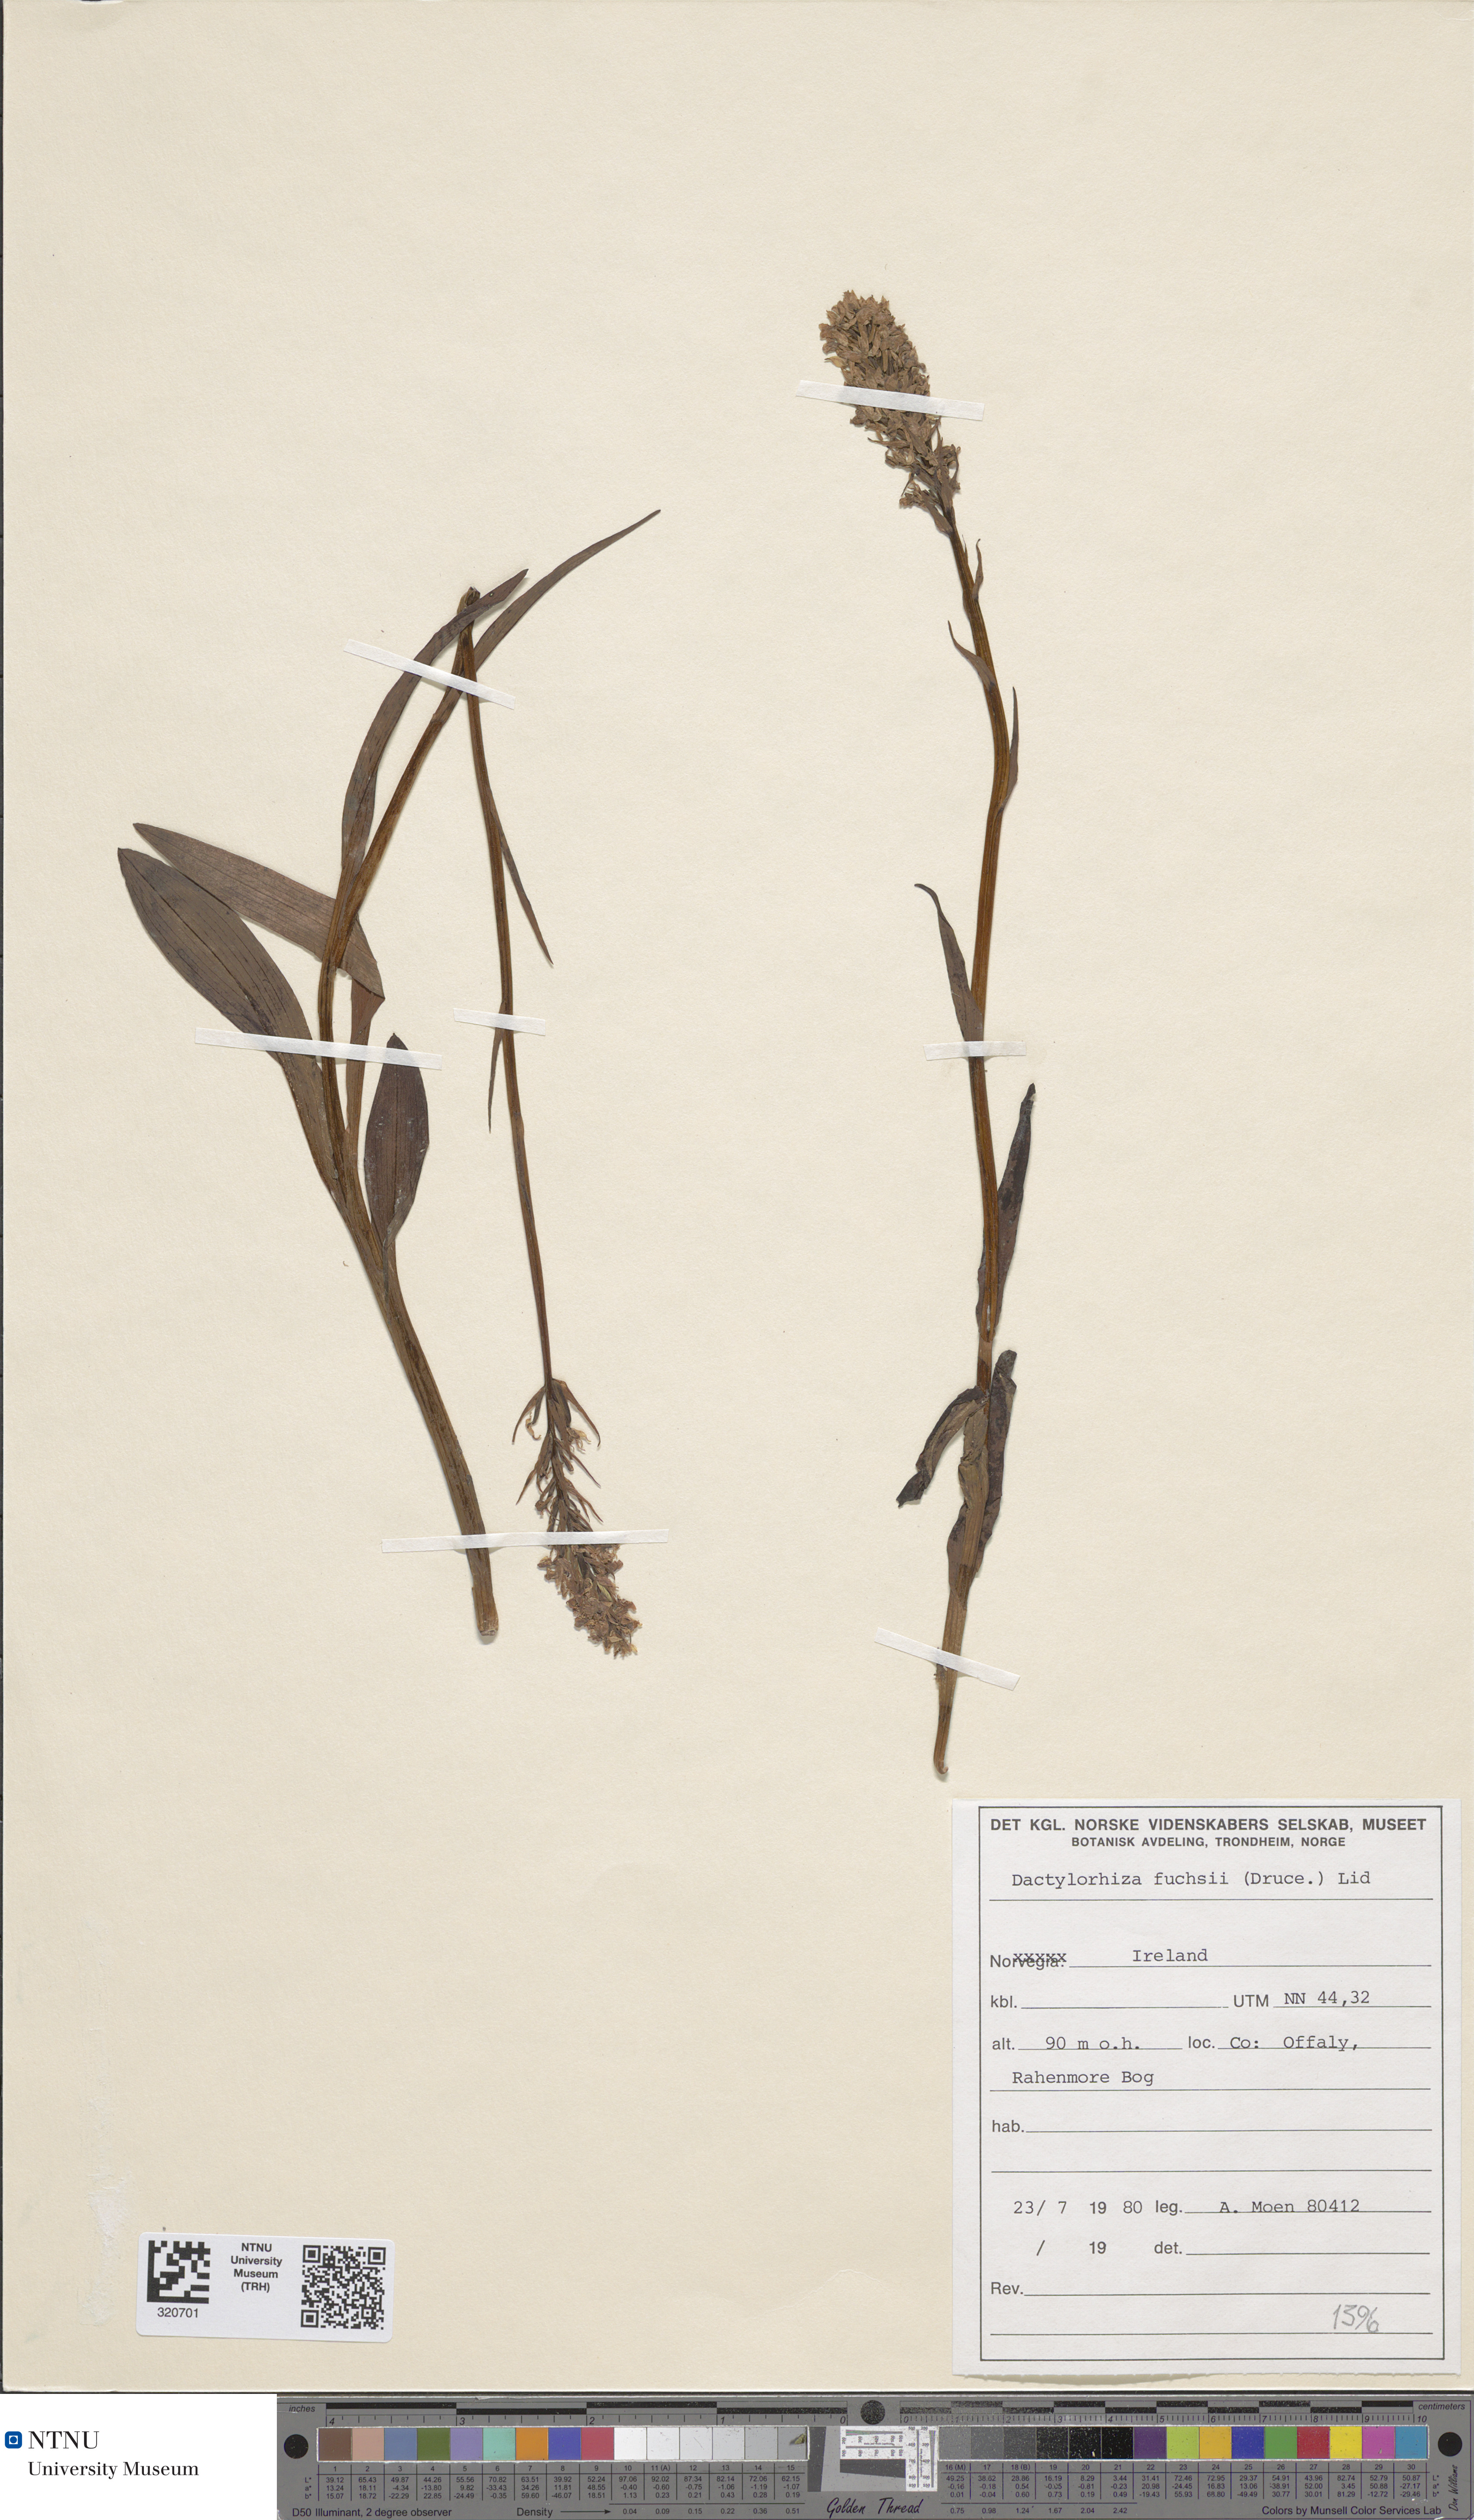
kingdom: Plantae
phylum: Tracheophyta
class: Liliopsida
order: Asparagales
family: Orchidaceae
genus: Dactylorhiza
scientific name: Dactylorhiza maculata
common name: Heath spotted-orchid
